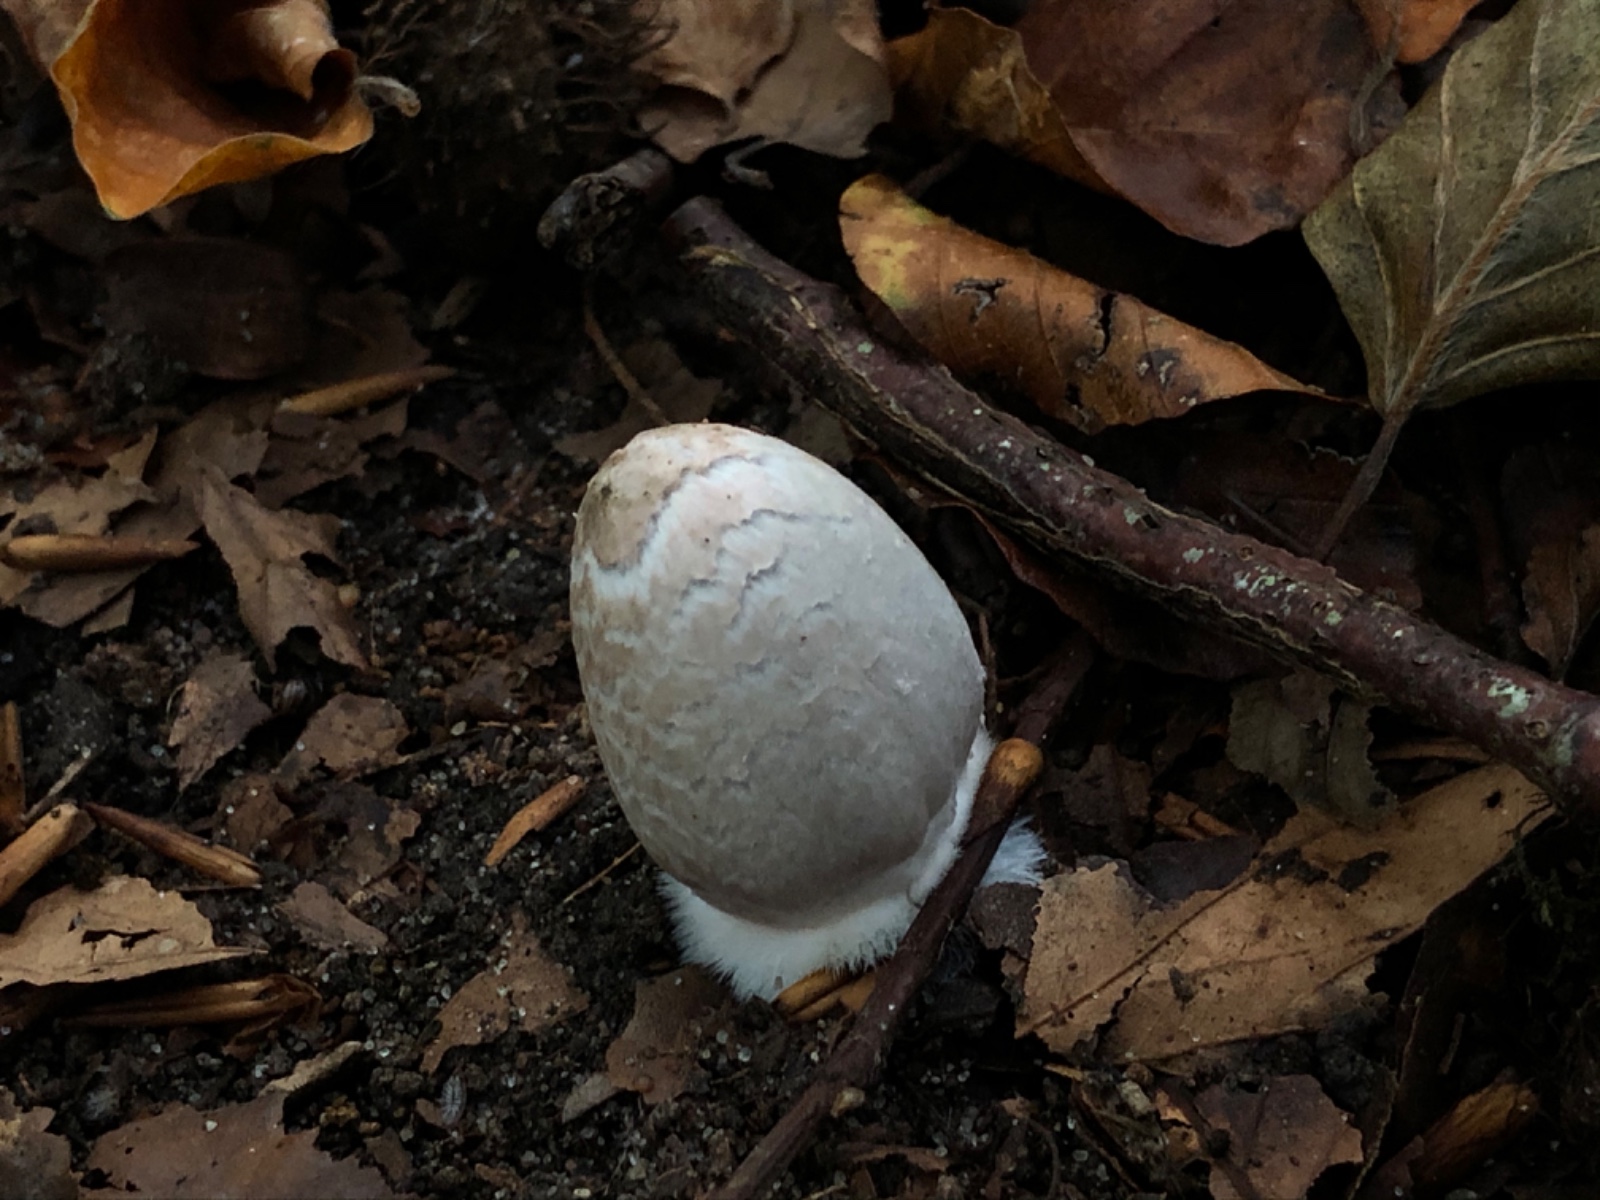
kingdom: Fungi
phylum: Basidiomycota
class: Agaricomycetes
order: Agaricales
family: Psathyrellaceae
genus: Coprinopsis
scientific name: Coprinopsis picacea
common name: skade-blækhat
